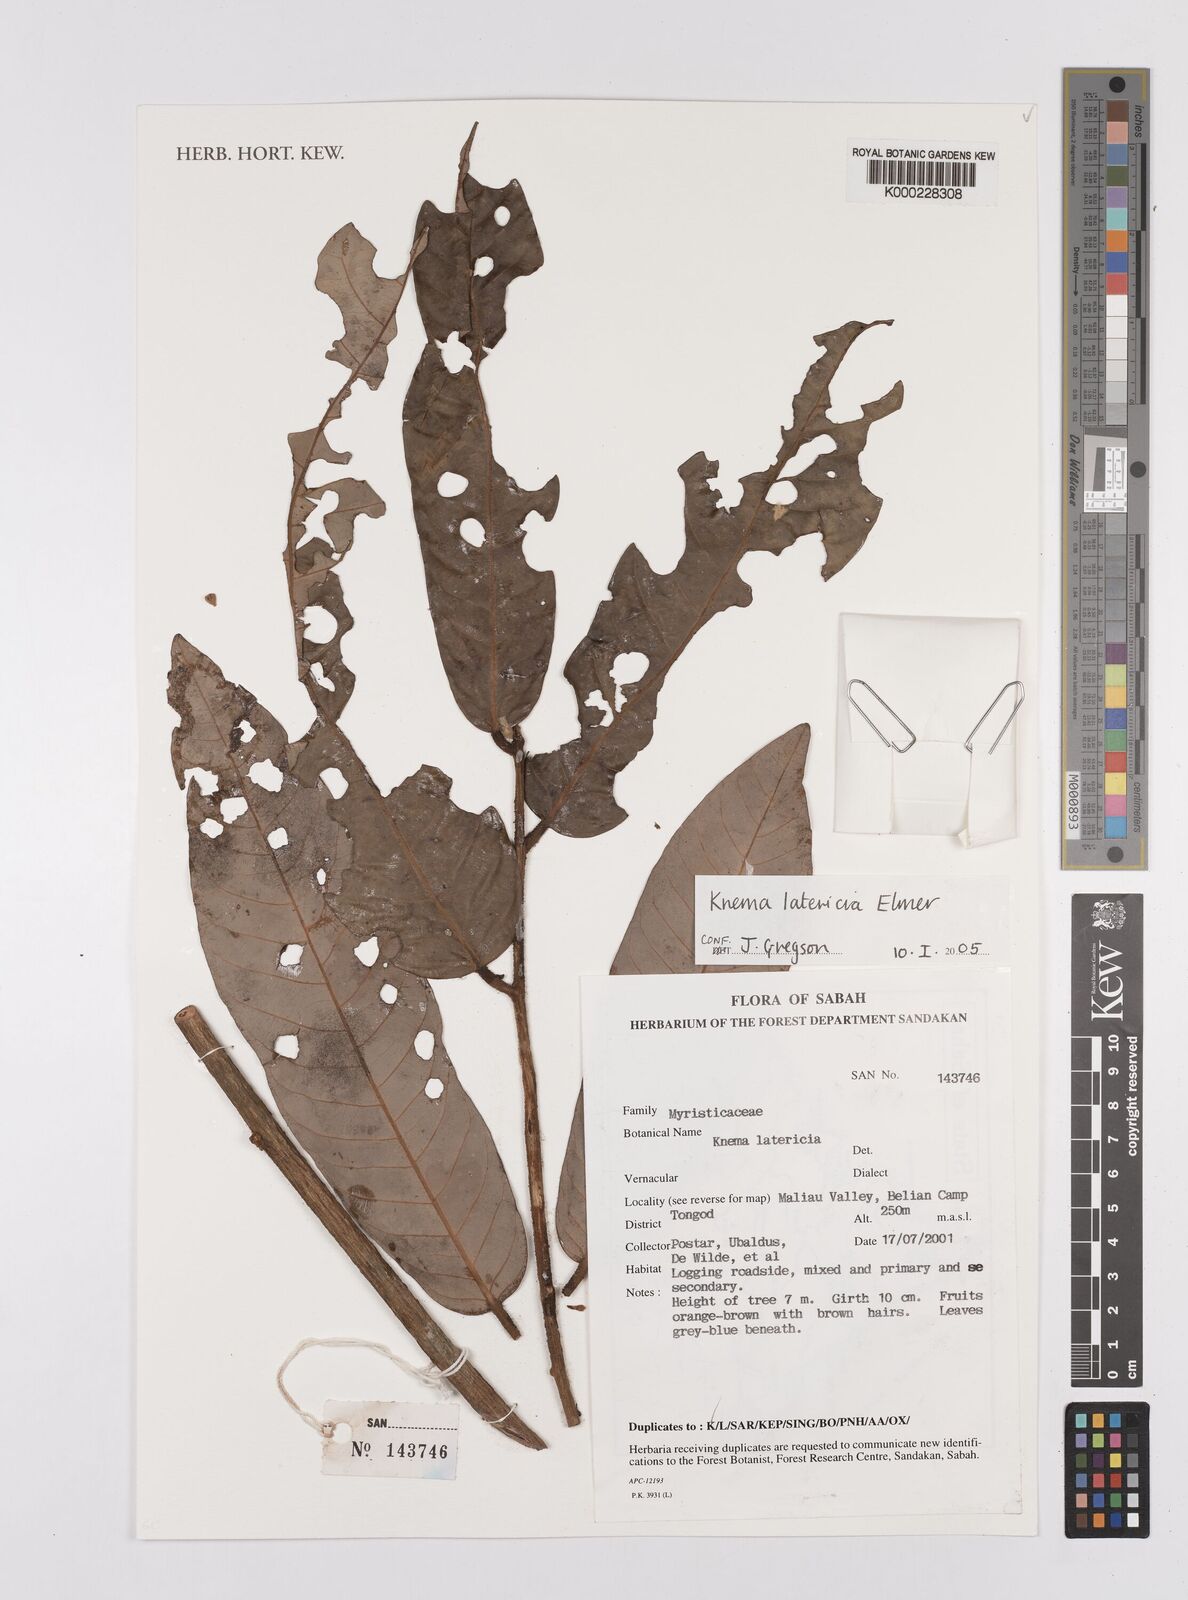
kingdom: Plantae
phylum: Tracheophyta
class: Magnoliopsida
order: Magnoliales
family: Myristicaceae
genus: Knema
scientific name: Knema latericia
